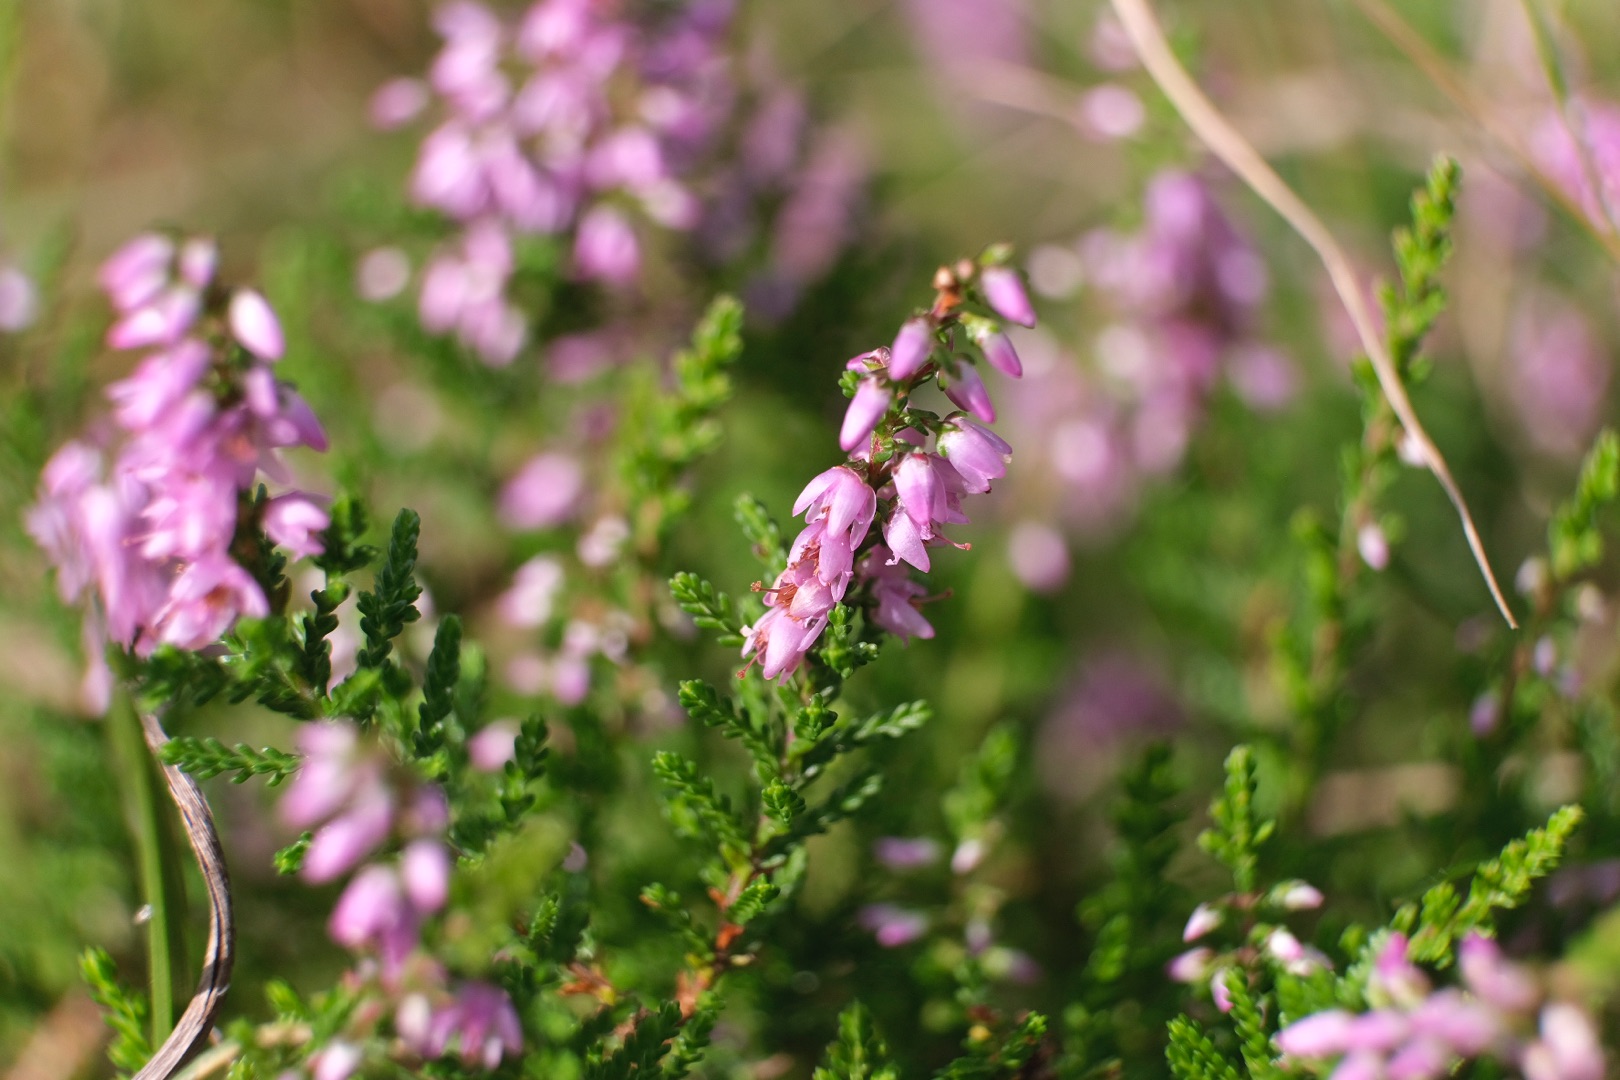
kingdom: Plantae
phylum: Tracheophyta
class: Magnoliopsida
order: Ericales
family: Ericaceae
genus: Calluna
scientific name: Calluna vulgaris
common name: Hedelyng
